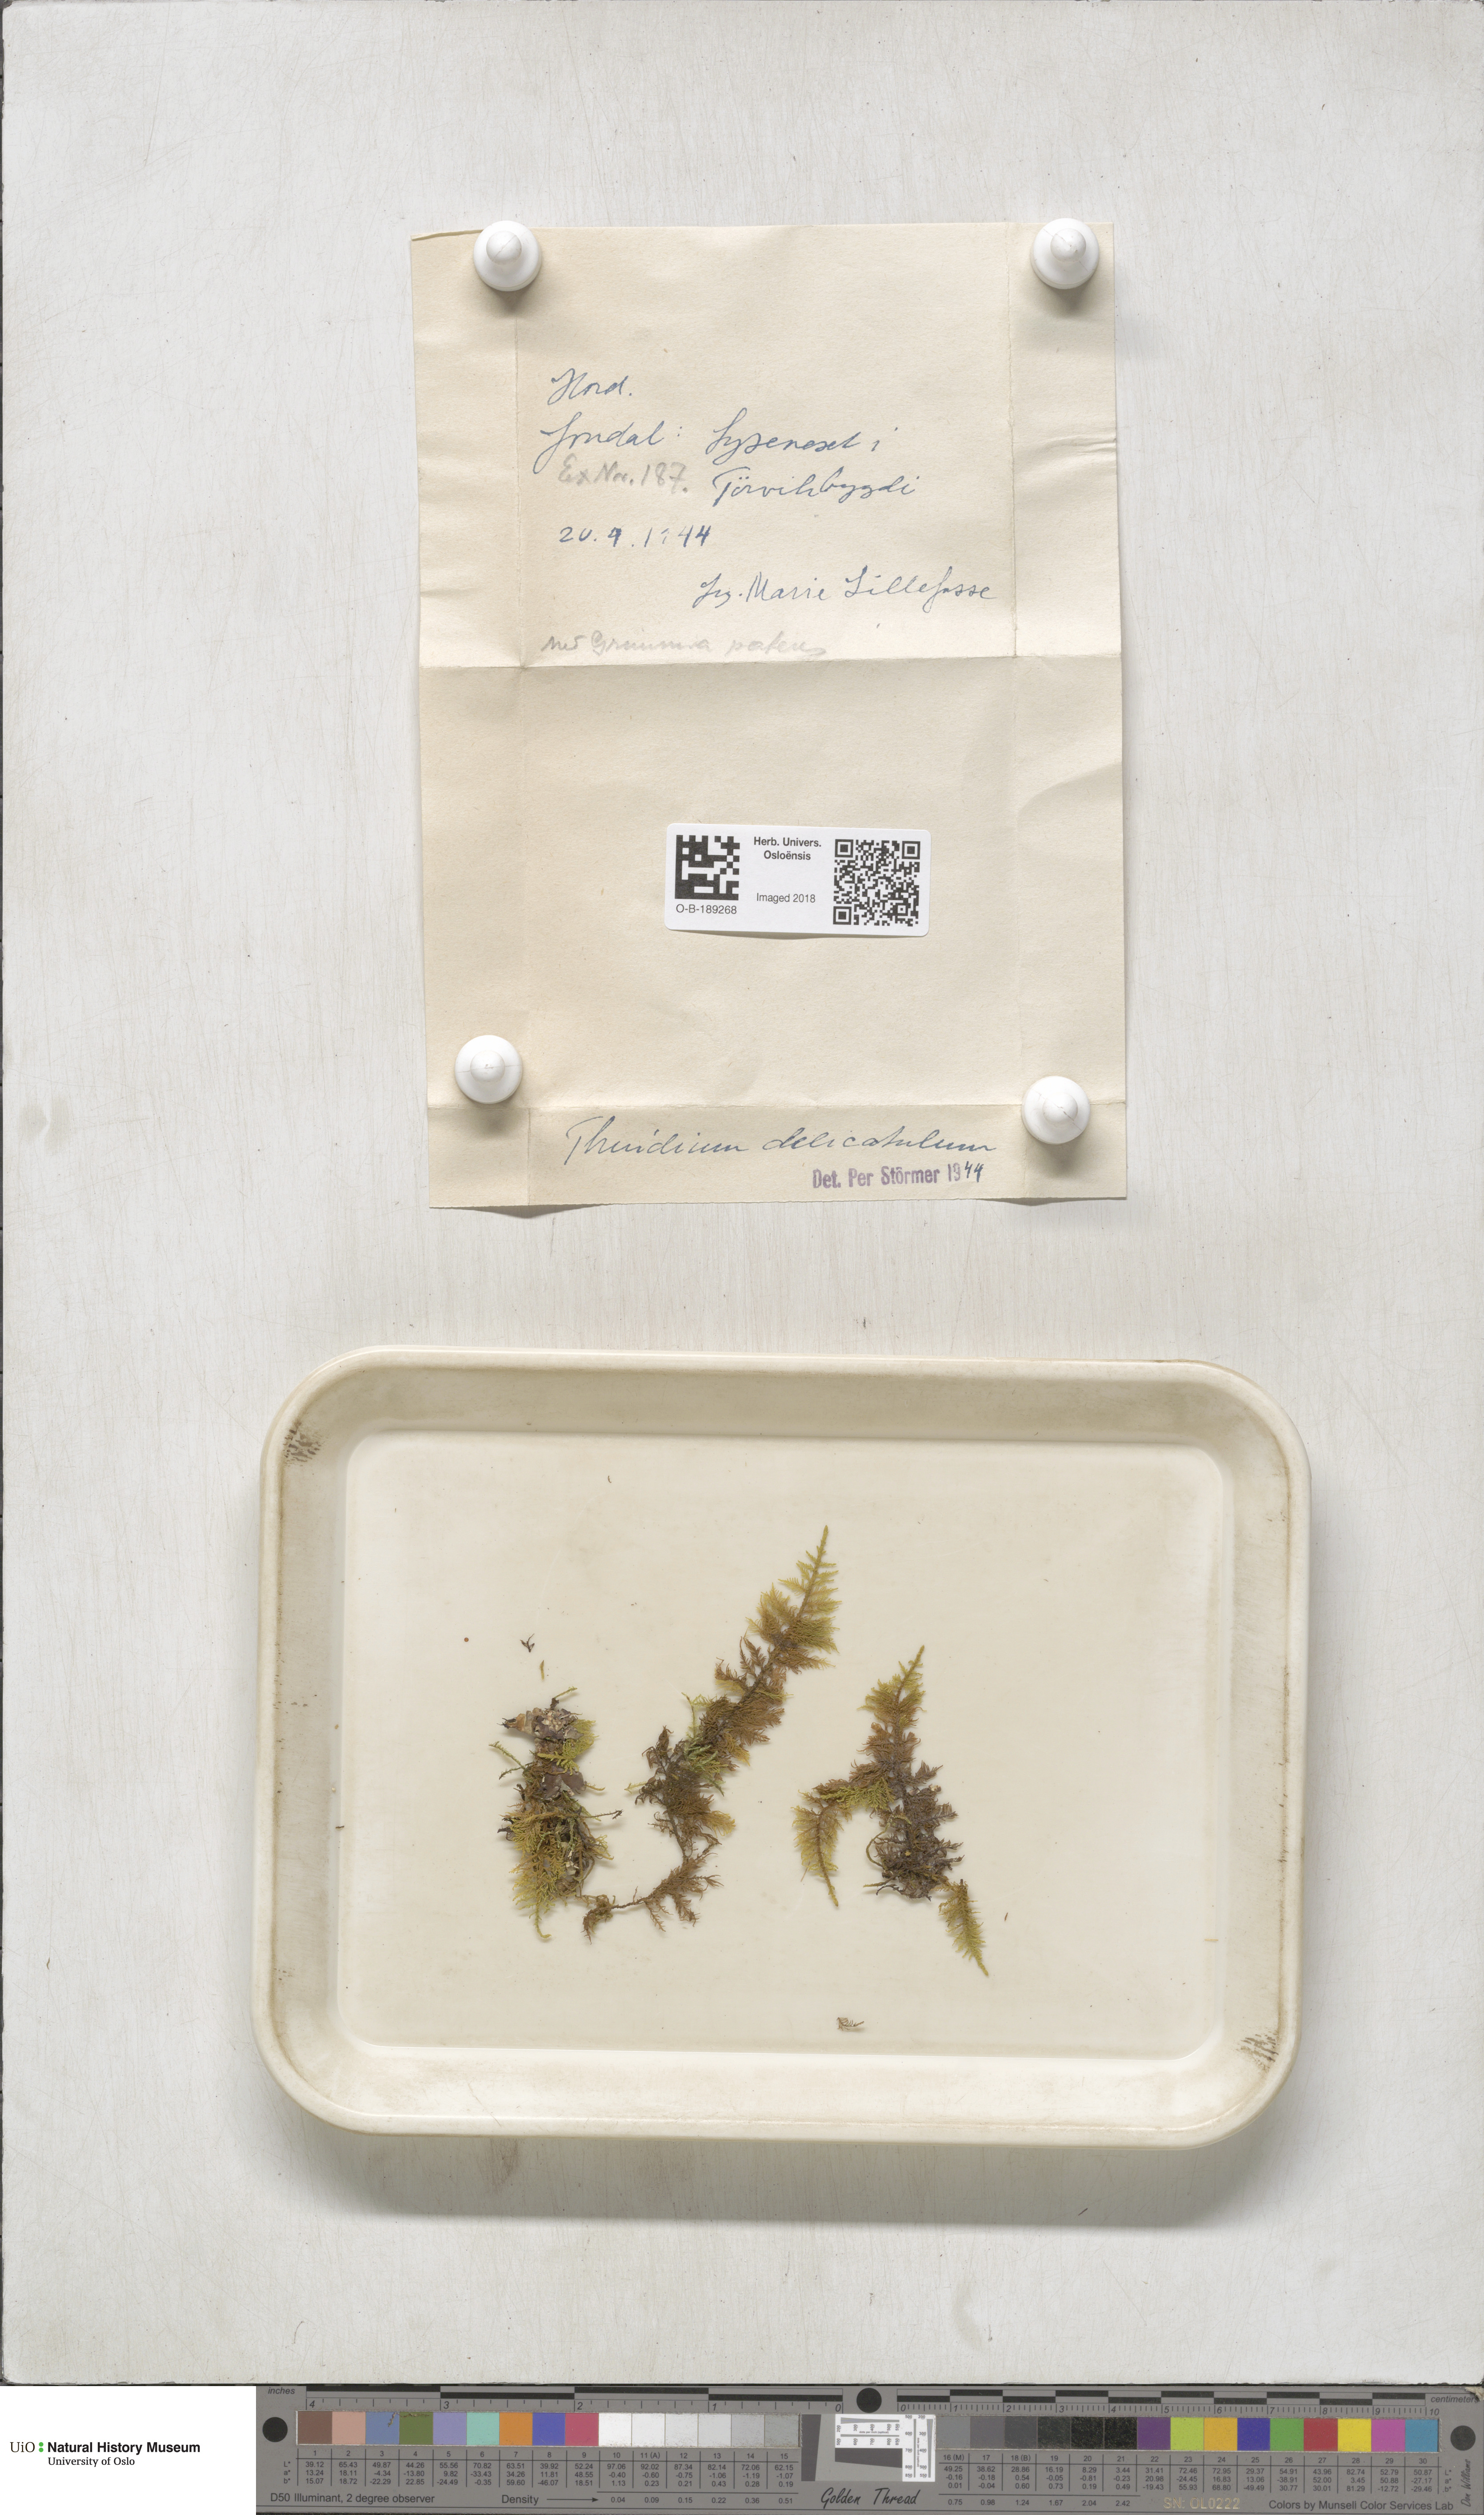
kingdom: Plantae
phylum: Bryophyta
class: Bryopsida
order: Hypnales
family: Thuidiaceae
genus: Thuidium
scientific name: Thuidium delicatulum
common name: Delicate fern moss
